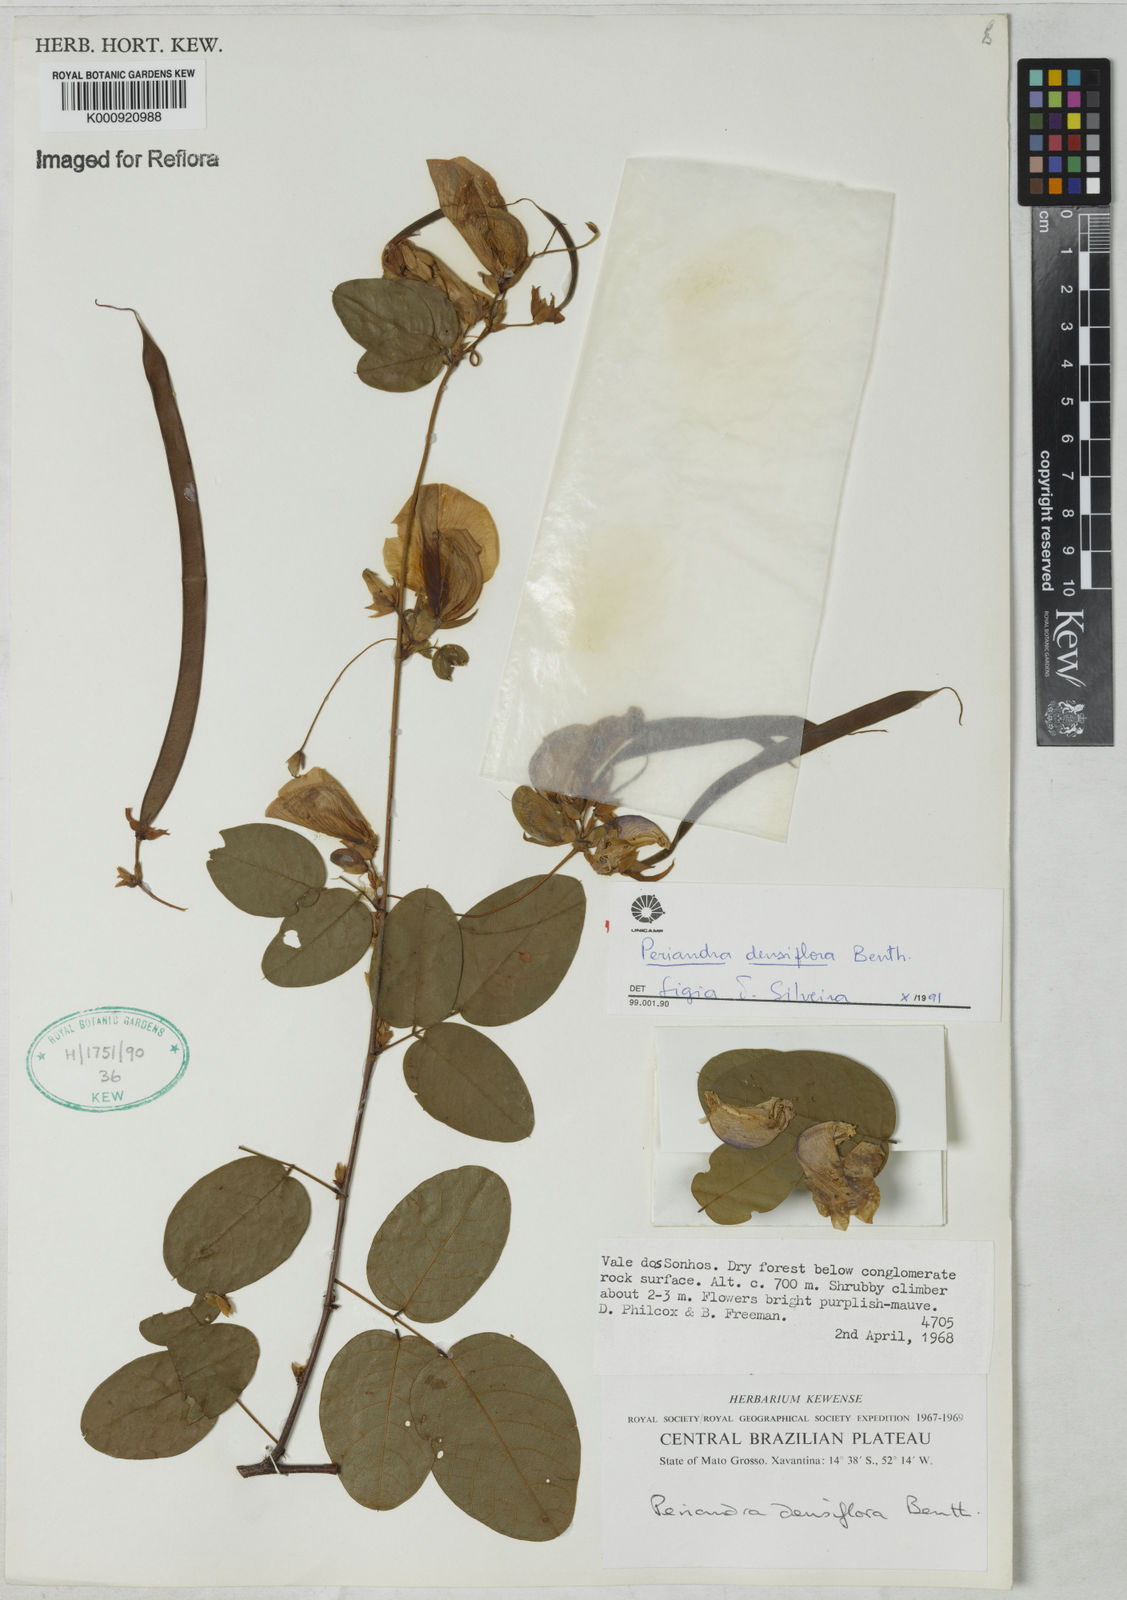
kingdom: Plantae
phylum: Tracheophyta
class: Magnoliopsida
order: Fabales
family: Fabaceae
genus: Periandra
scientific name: Periandra densiflora
